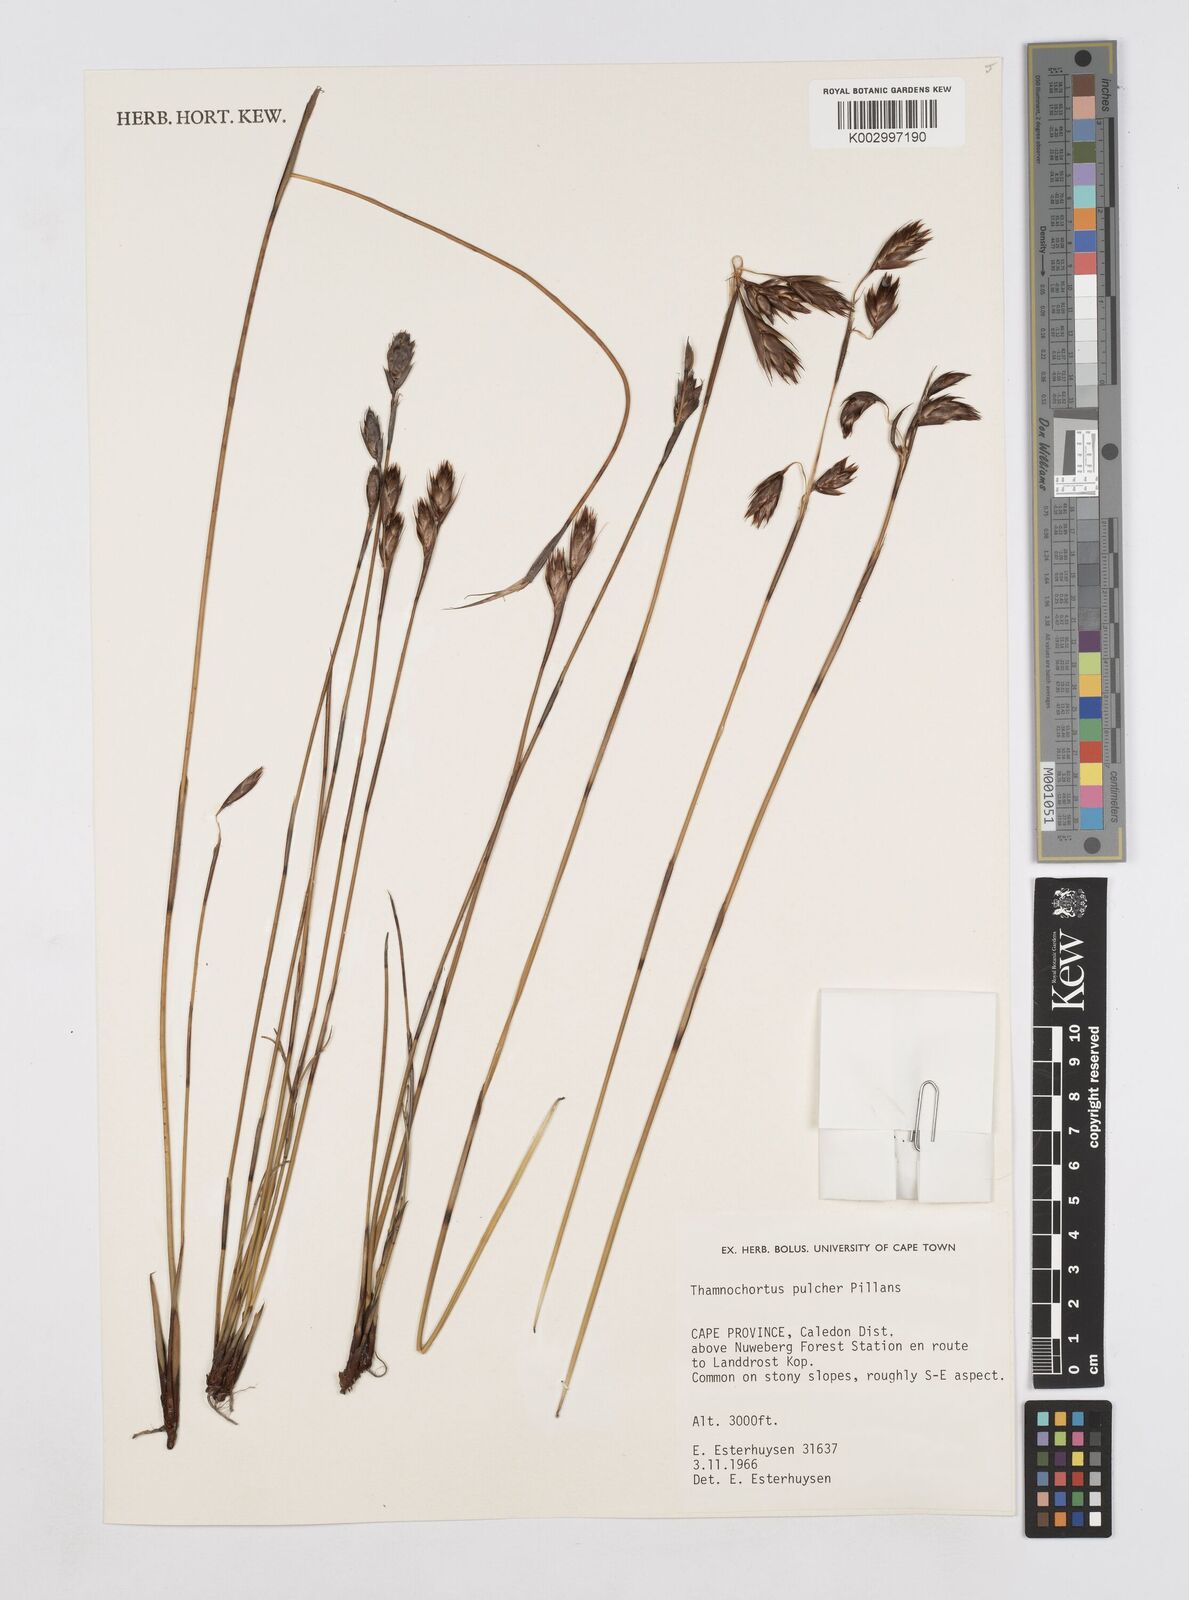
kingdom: Plantae
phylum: Tracheophyta
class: Liliopsida
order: Poales
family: Restionaceae
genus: Thamnochortus
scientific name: Thamnochortus pulcher
